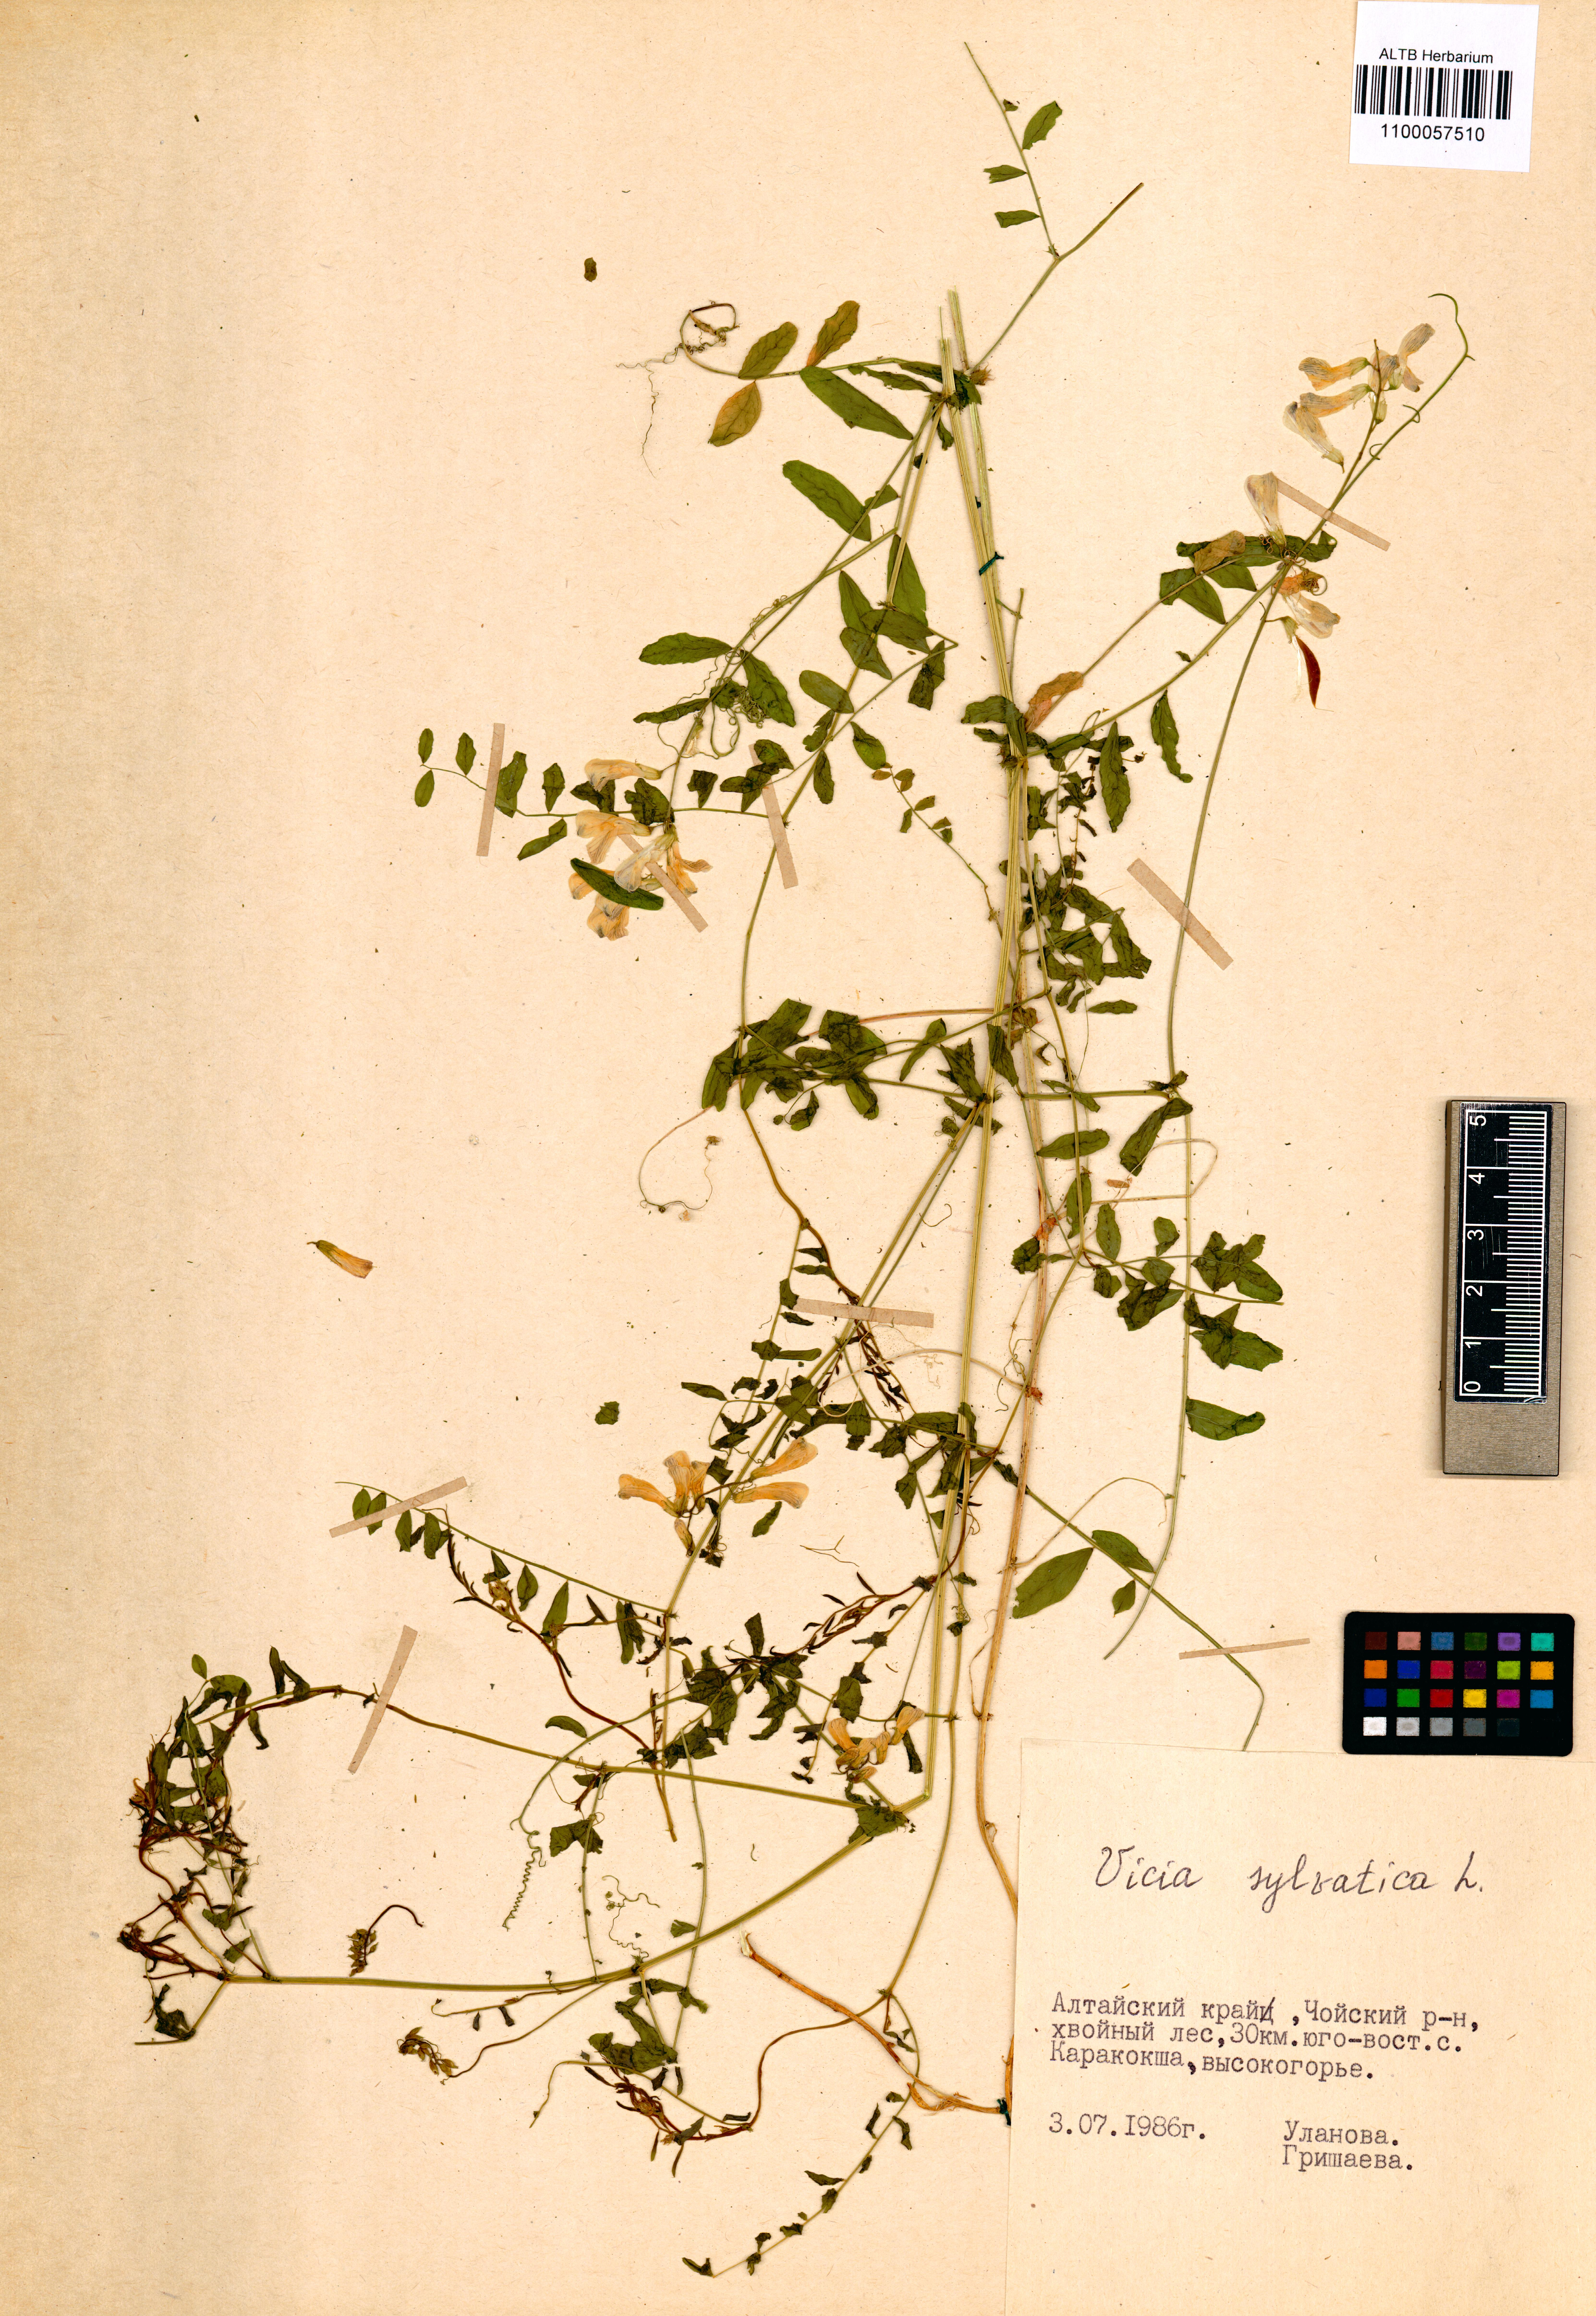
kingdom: Plantae
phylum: Tracheophyta
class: Magnoliopsida
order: Fabales
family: Fabaceae
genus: Vicia
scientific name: Vicia sylvatica
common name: Wood vetch
